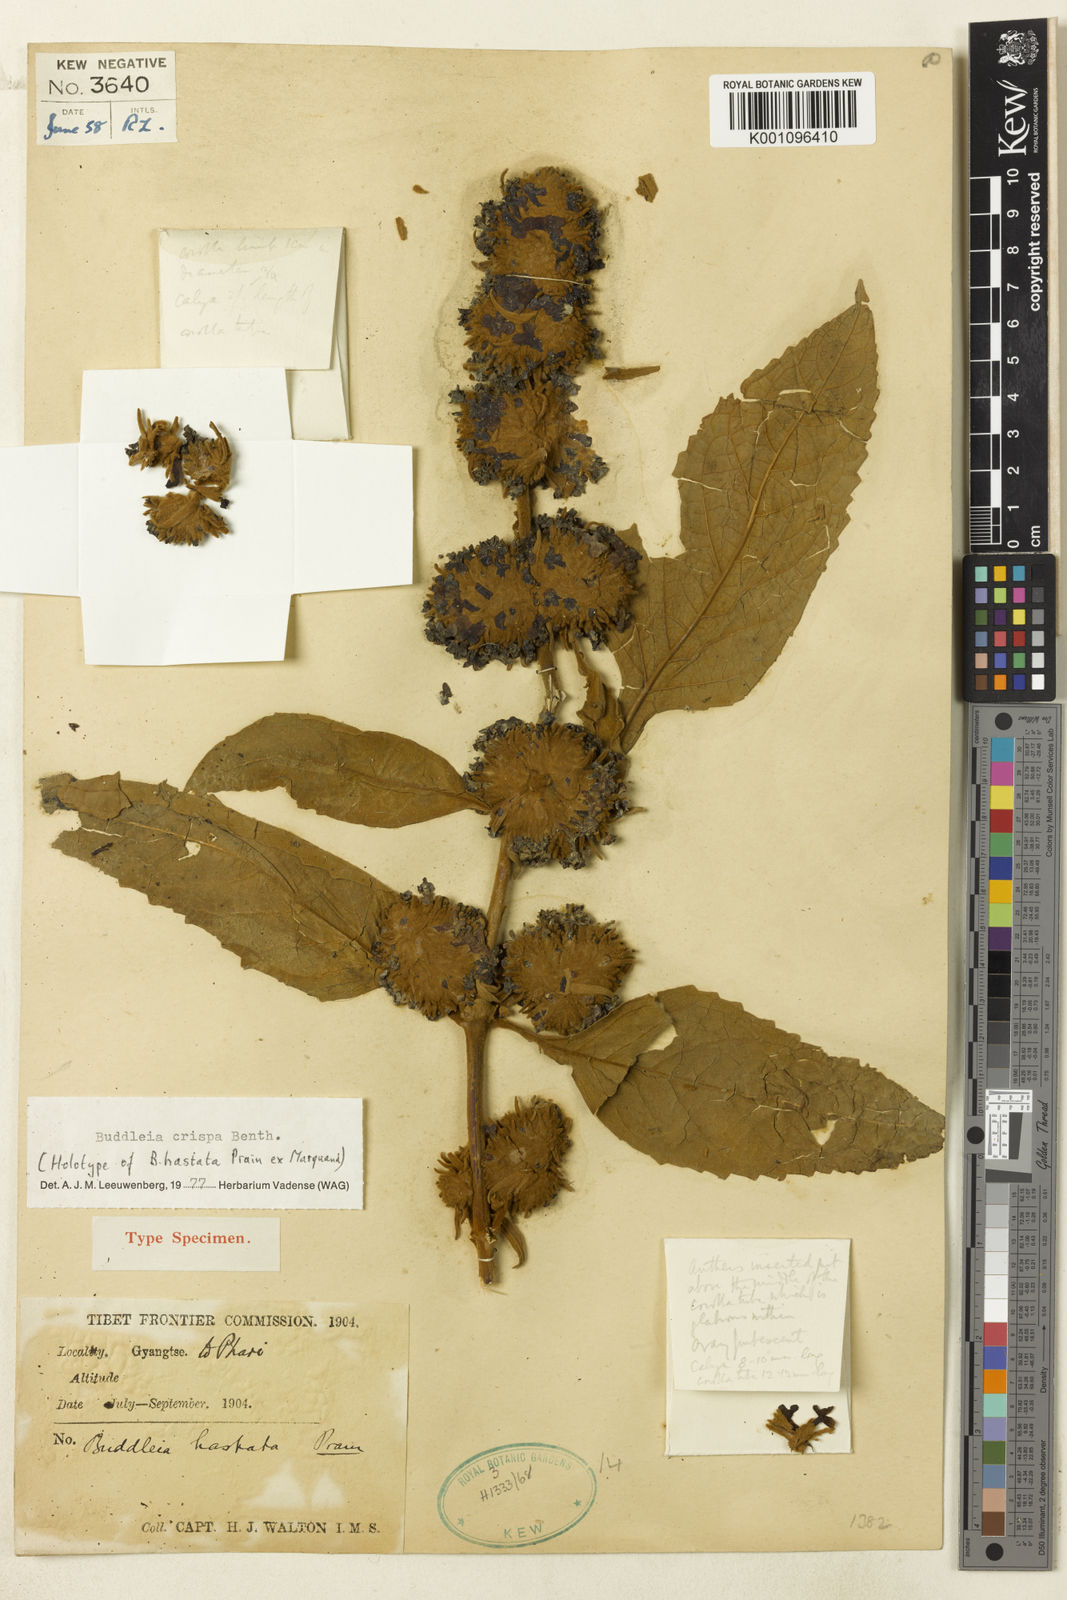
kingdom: Plantae
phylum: Tracheophyta
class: Magnoliopsida
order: Lamiales
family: Scrophulariaceae
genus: Buddleja
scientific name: Buddleja crispa
